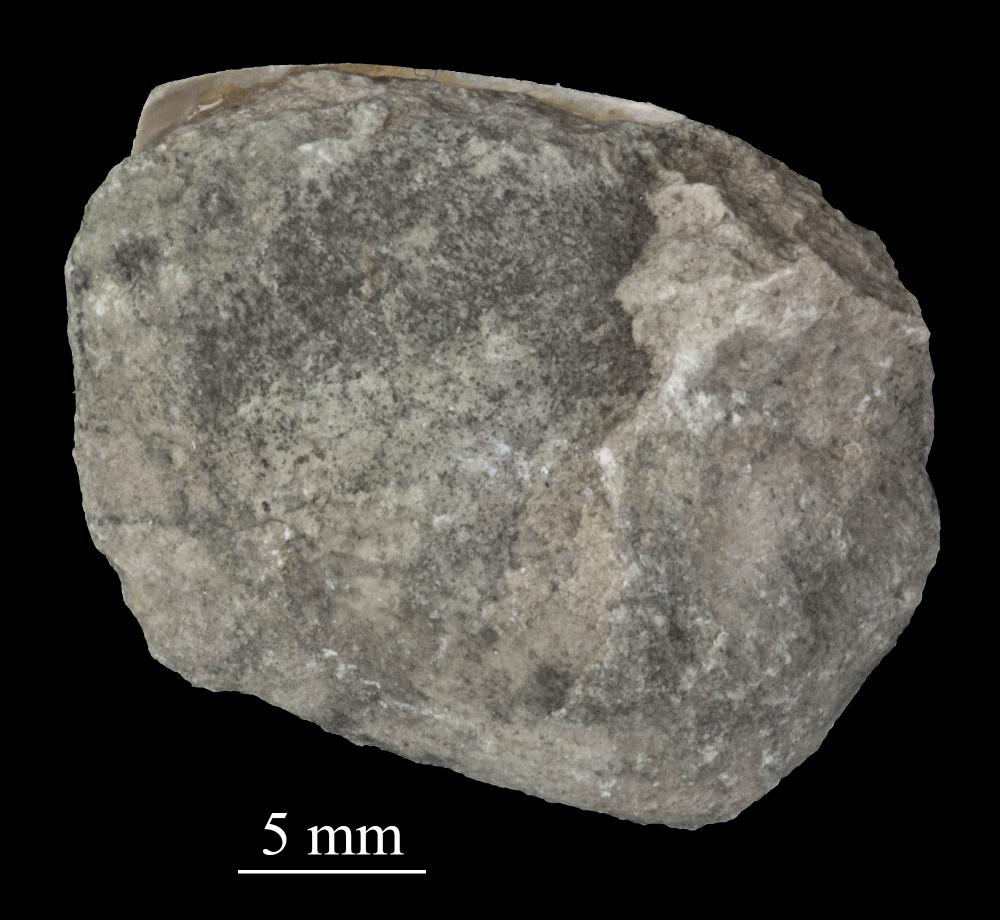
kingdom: Animalia
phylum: Mollusca
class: Bivalvia
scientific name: Bivalvia
